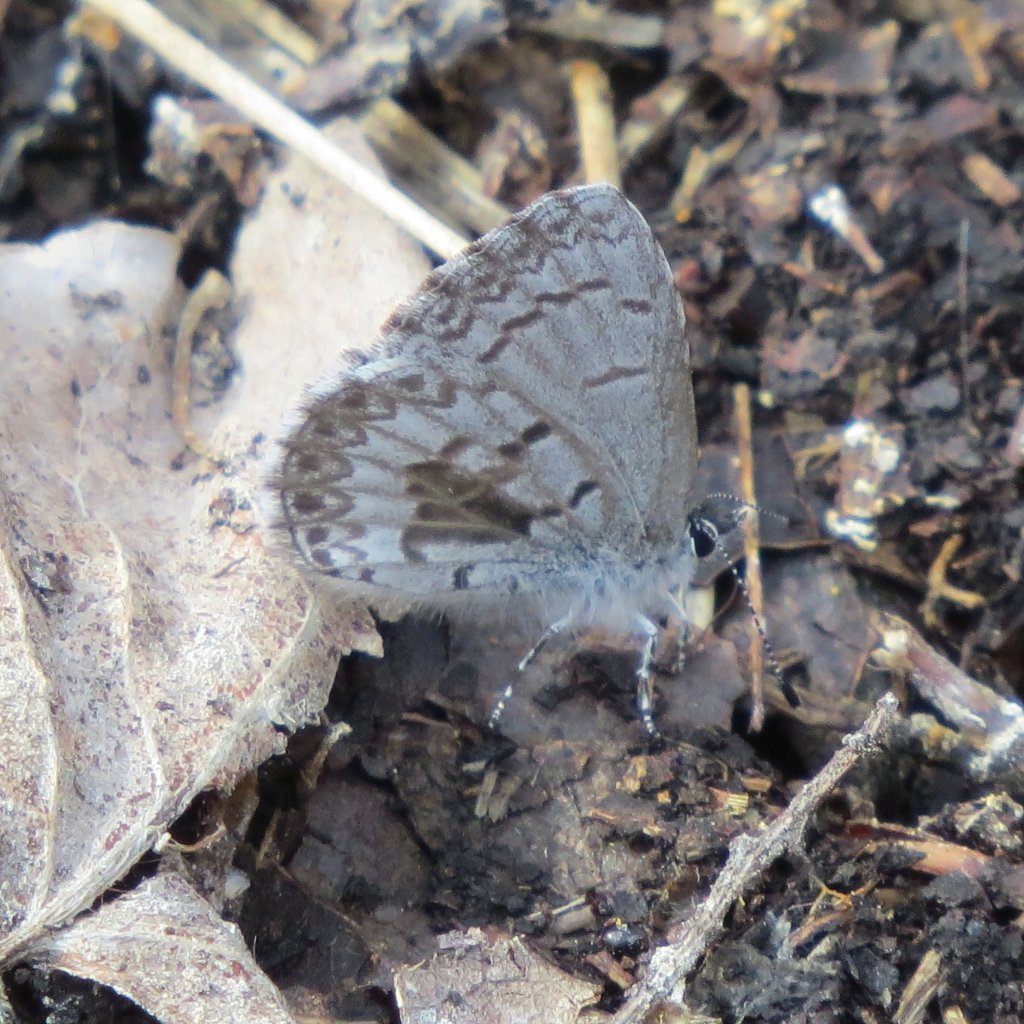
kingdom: Animalia
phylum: Arthropoda
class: Insecta
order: Lepidoptera
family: Lycaenidae
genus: Celastrina
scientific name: Celastrina lucia
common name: Northern Spring Azure
